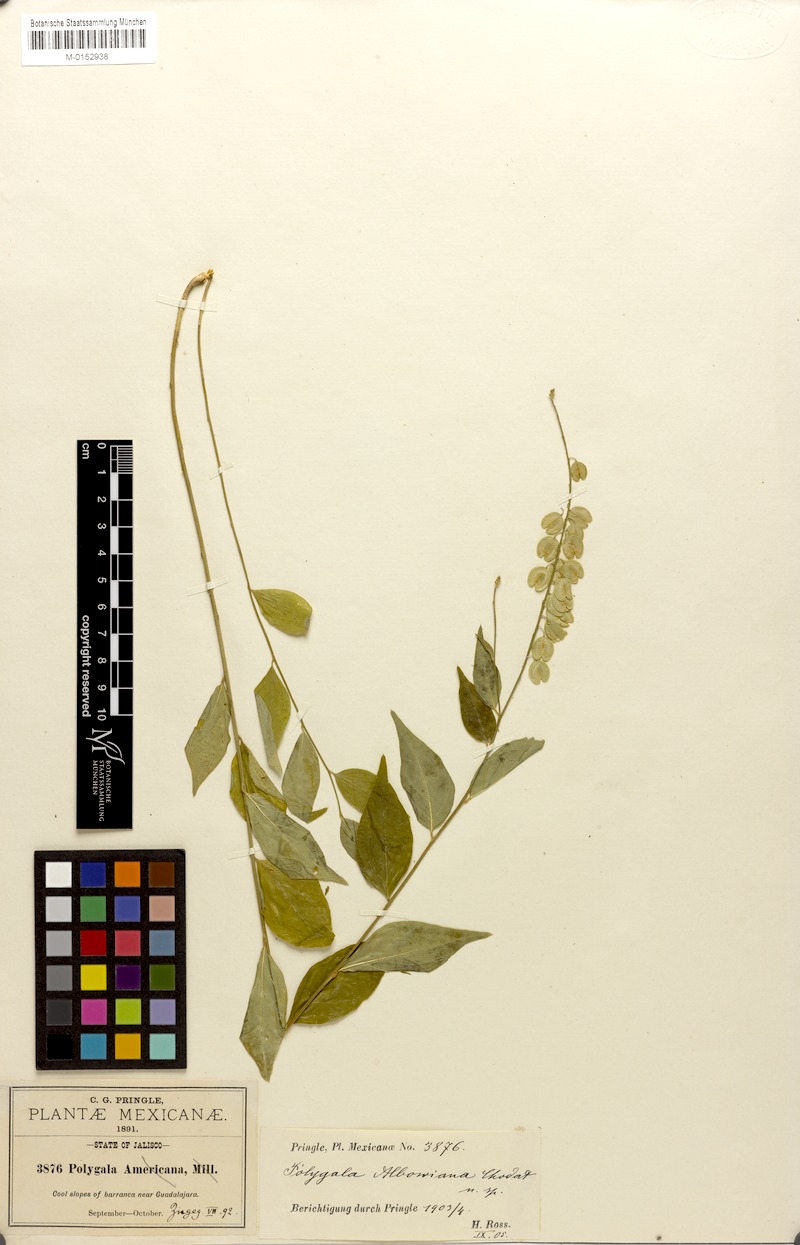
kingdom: Plantae
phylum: Tracheophyta
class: Magnoliopsida
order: Fabales
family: Polygalaceae
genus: Hebecarpa
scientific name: Hebecarpa rivinifolia
